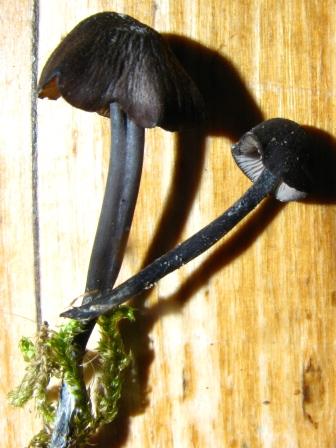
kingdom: Fungi
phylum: Basidiomycota
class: Agaricomycetes
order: Agaricales
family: Entolomataceae
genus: Entoloma
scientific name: Entoloma chalybeum
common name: blåbladet rødblad
